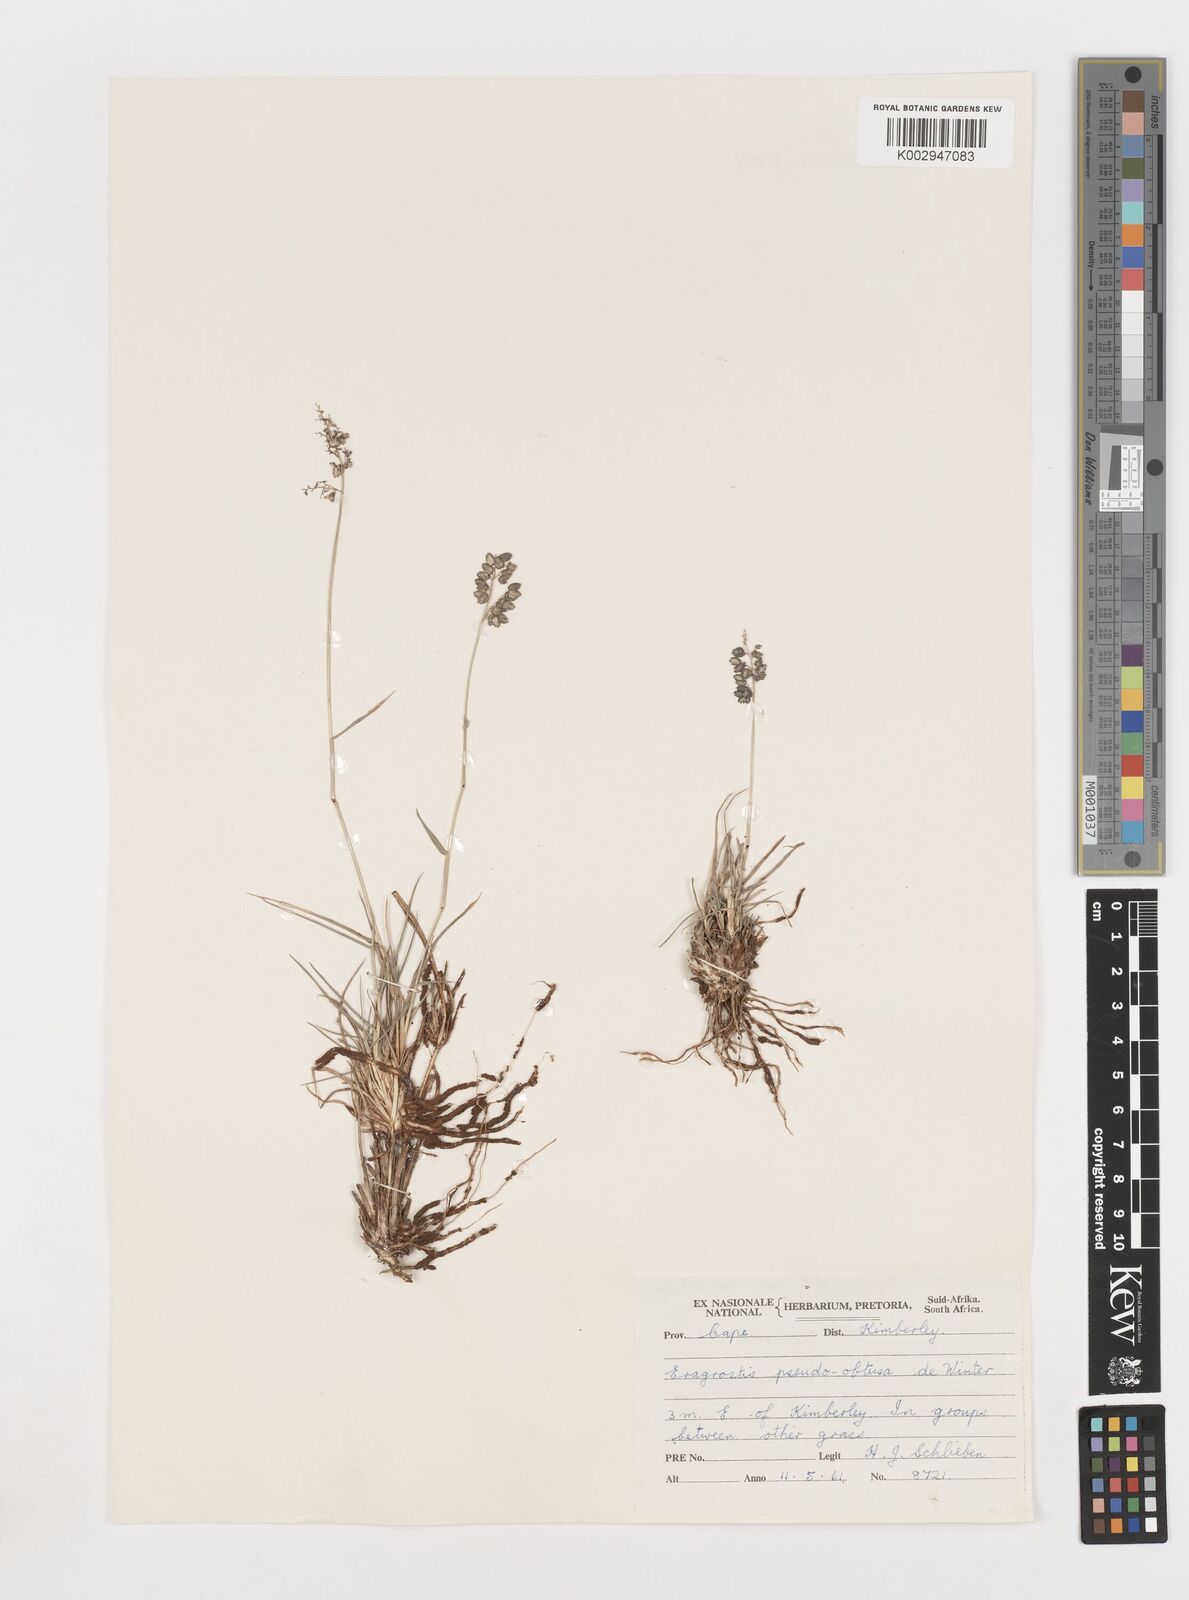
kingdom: Plantae
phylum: Tracheophyta
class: Liliopsida
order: Poales
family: Poaceae
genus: Eragrostis
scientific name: Eragrostis pseudobtusa
